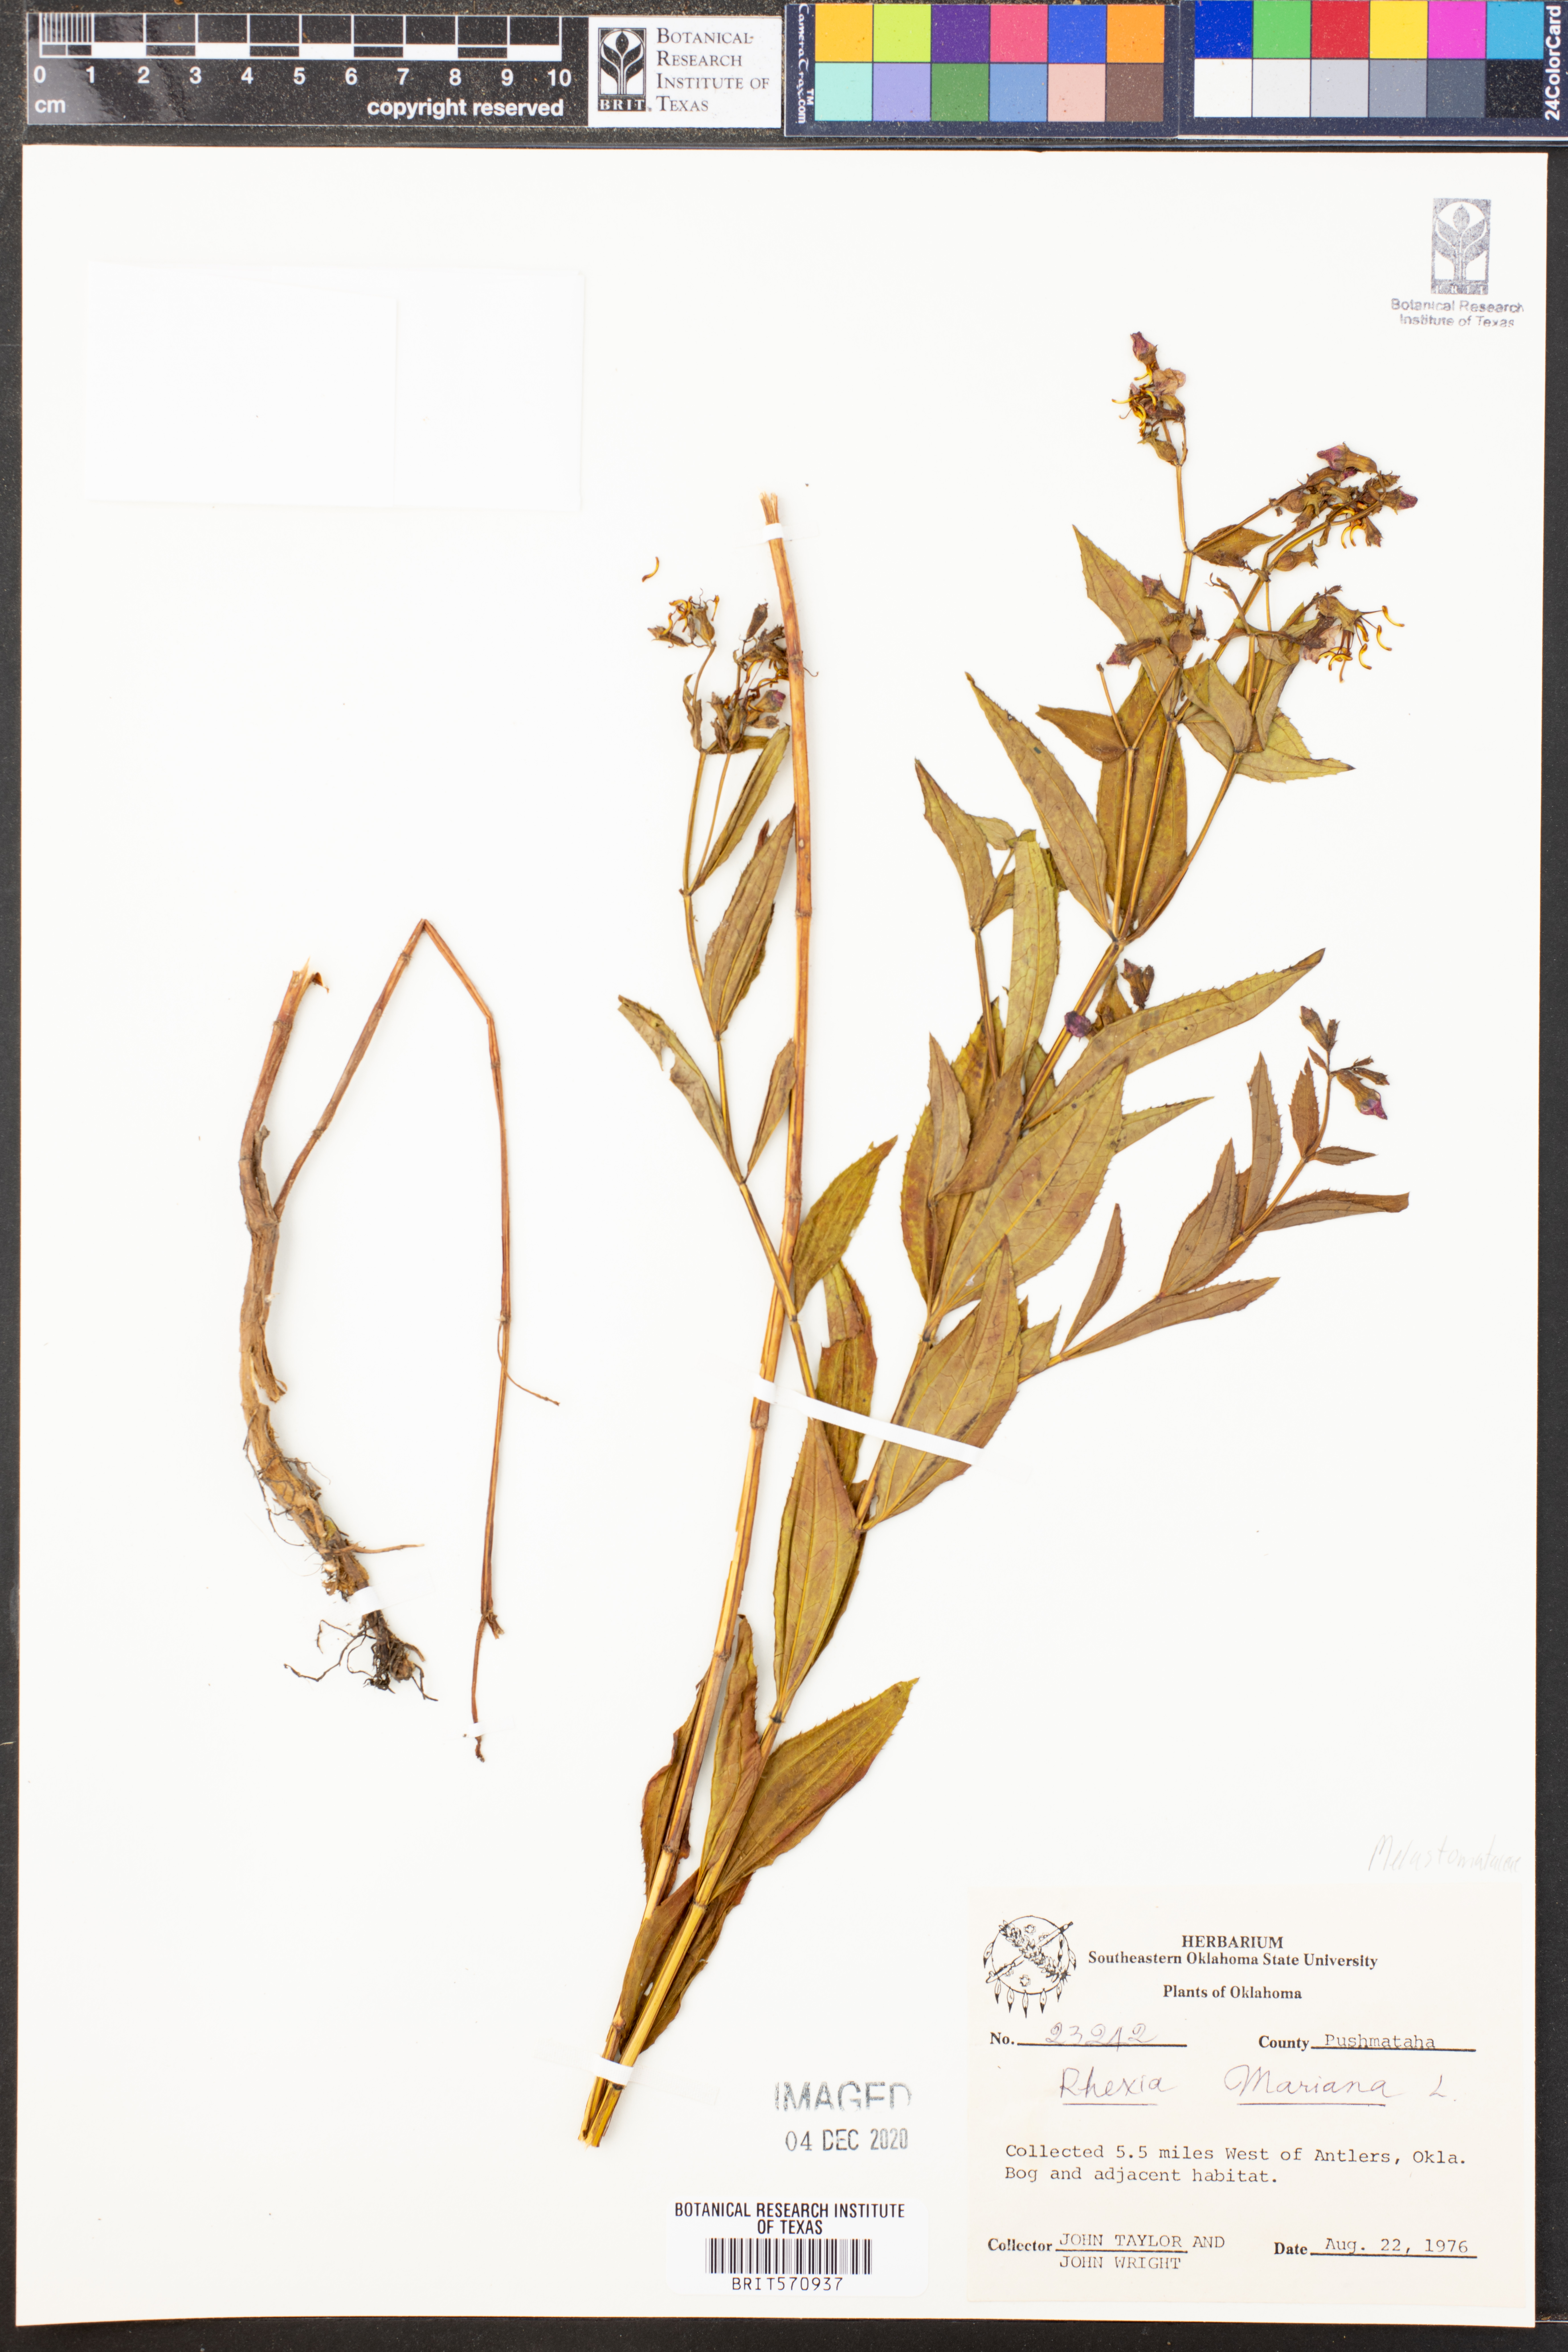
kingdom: Plantae
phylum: Tracheophyta
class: Magnoliopsida
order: Myrtales
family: Melastomataceae
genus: Rhexia
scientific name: Rhexia mariana
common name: Dull meadow-pitcher
